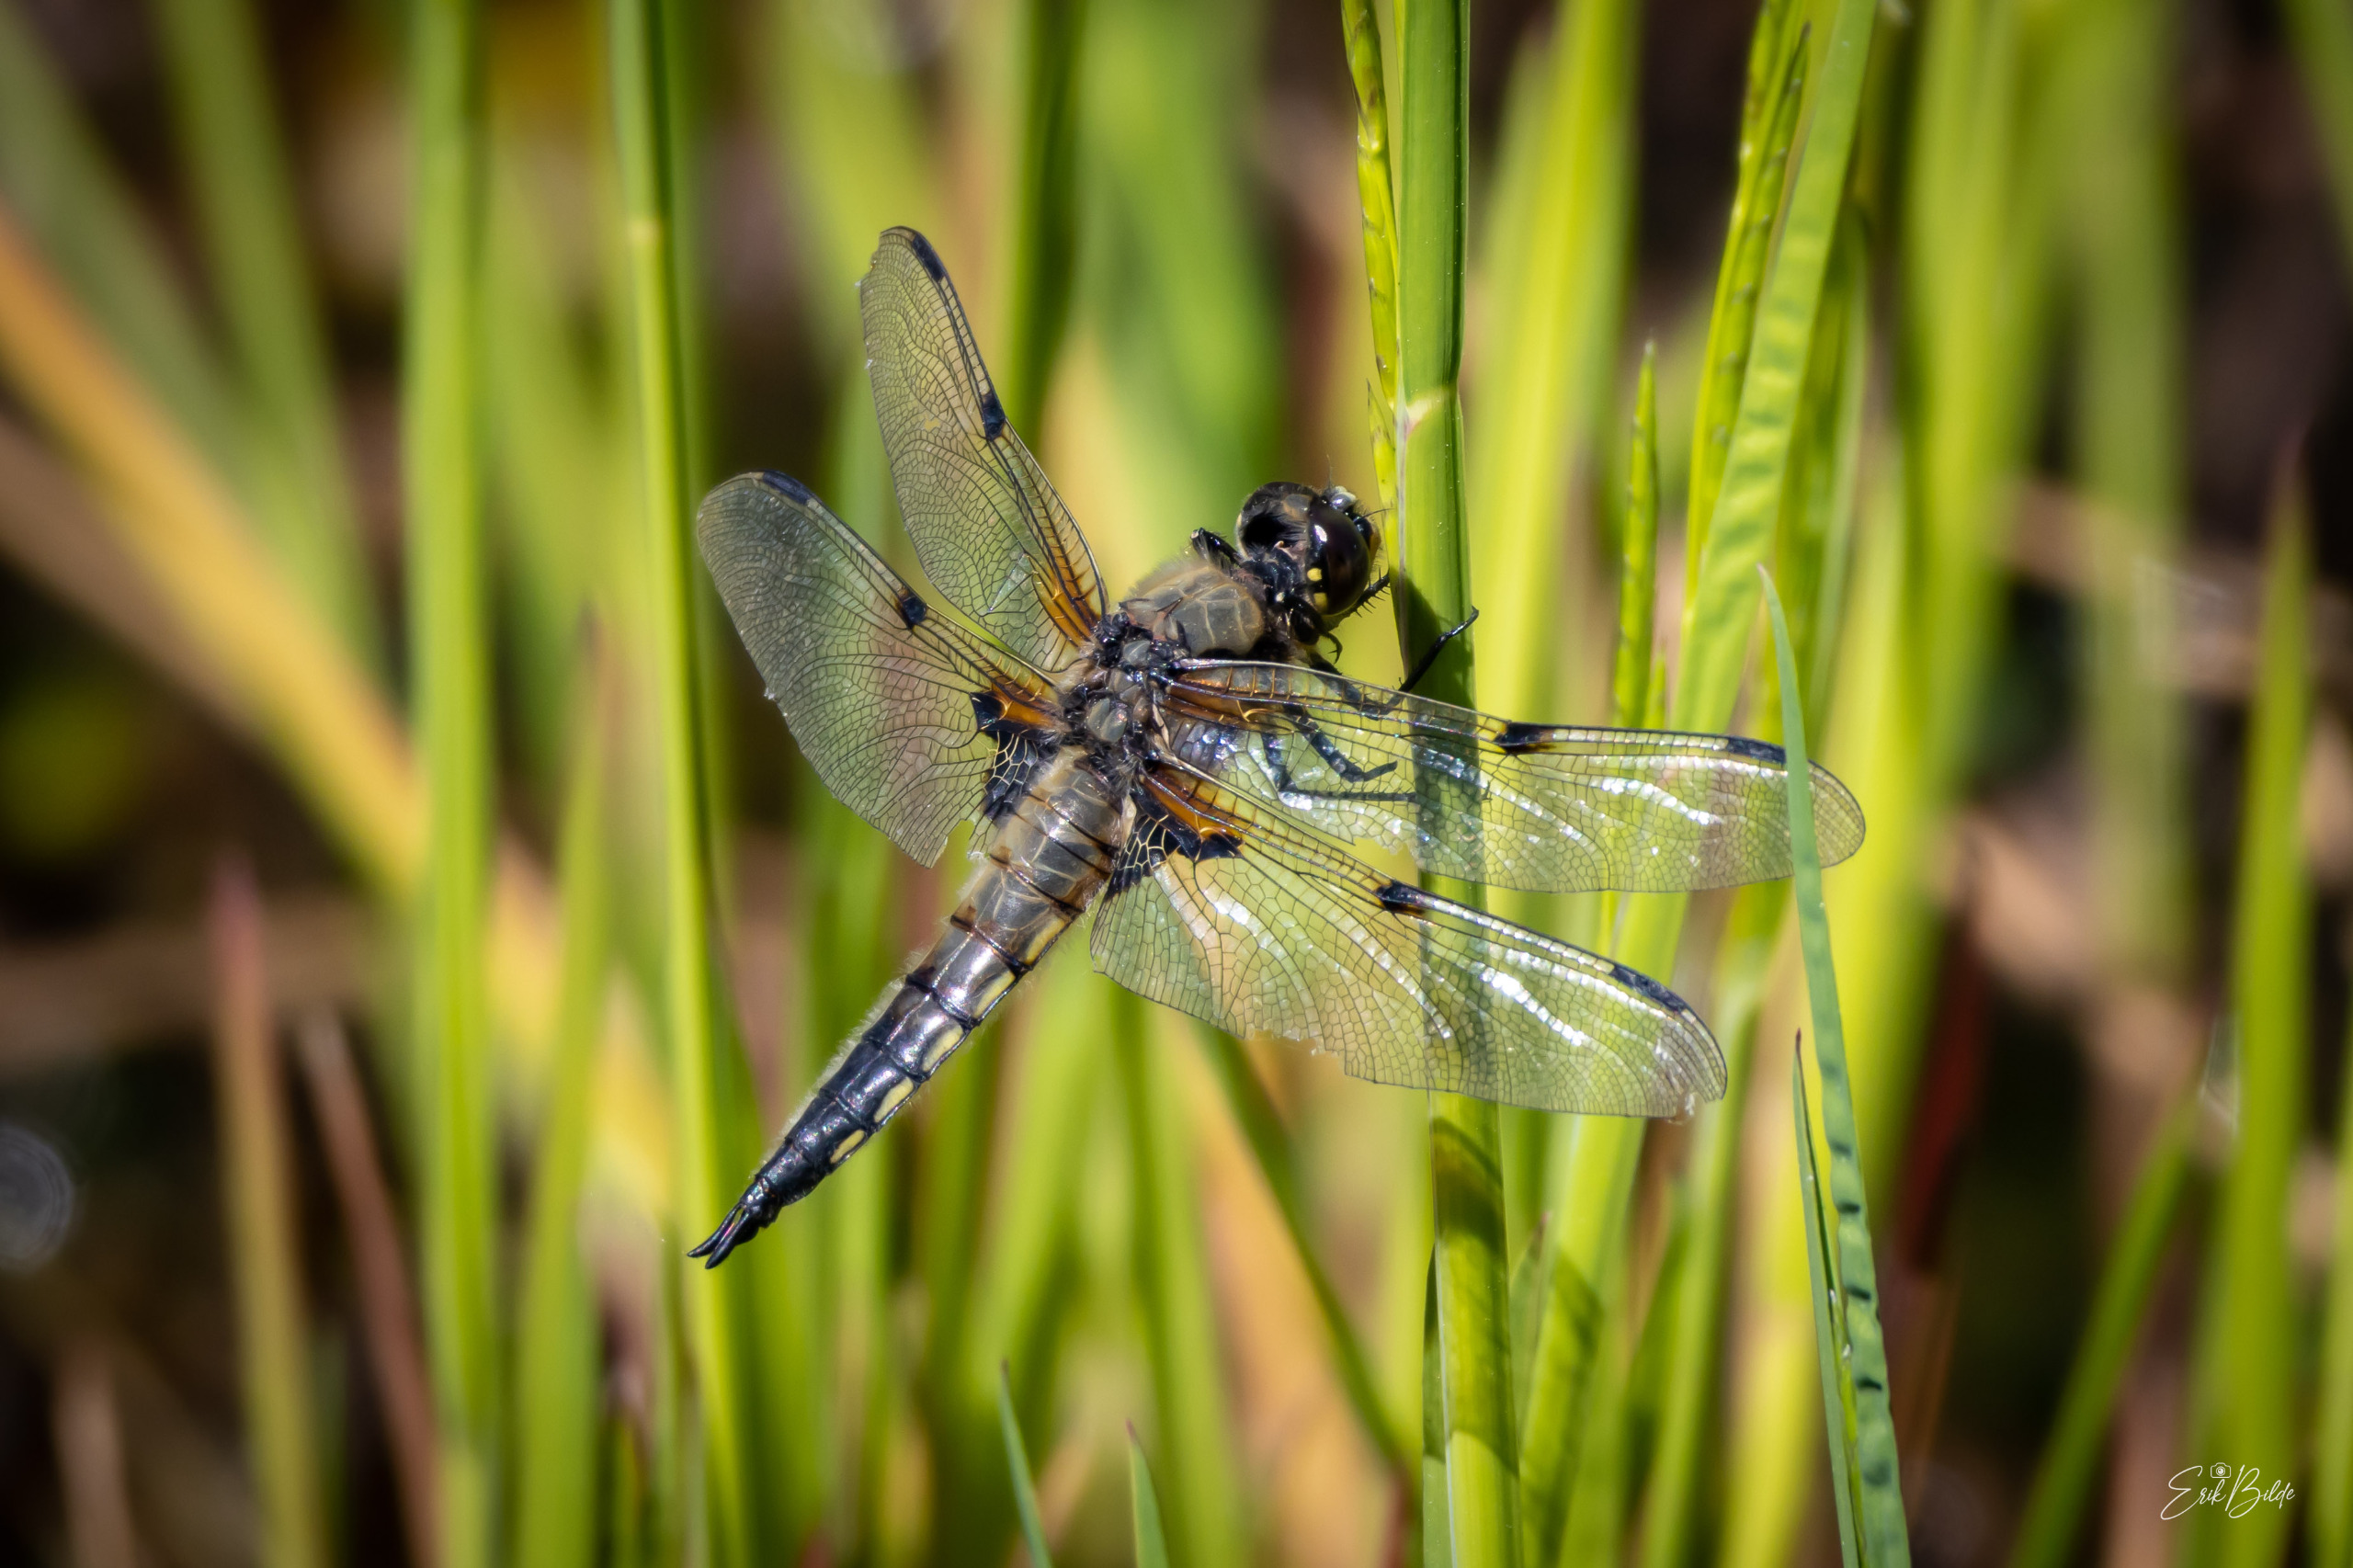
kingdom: Animalia
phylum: Arthropoda
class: Insecta
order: Odonata
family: Libellulidae
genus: Libellula
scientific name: Libellula quadrimaculata
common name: Fireplettet libel
